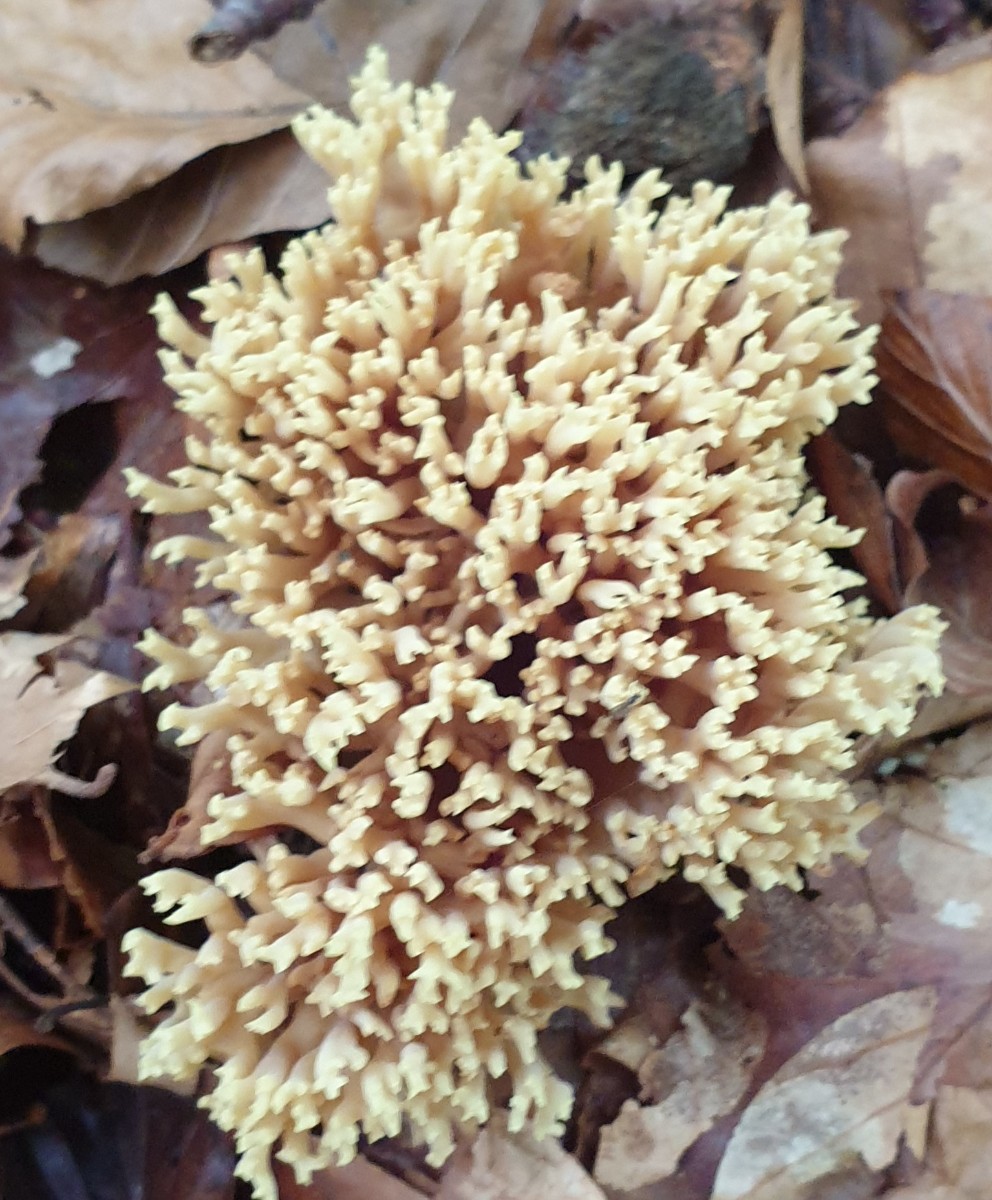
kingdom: Fungi
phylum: Basidiomycota
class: Agaricomycetes
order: Gomphales
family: Gomphaceae
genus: Ramaria
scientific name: Ramaria stricta
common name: rank koralsvamp
